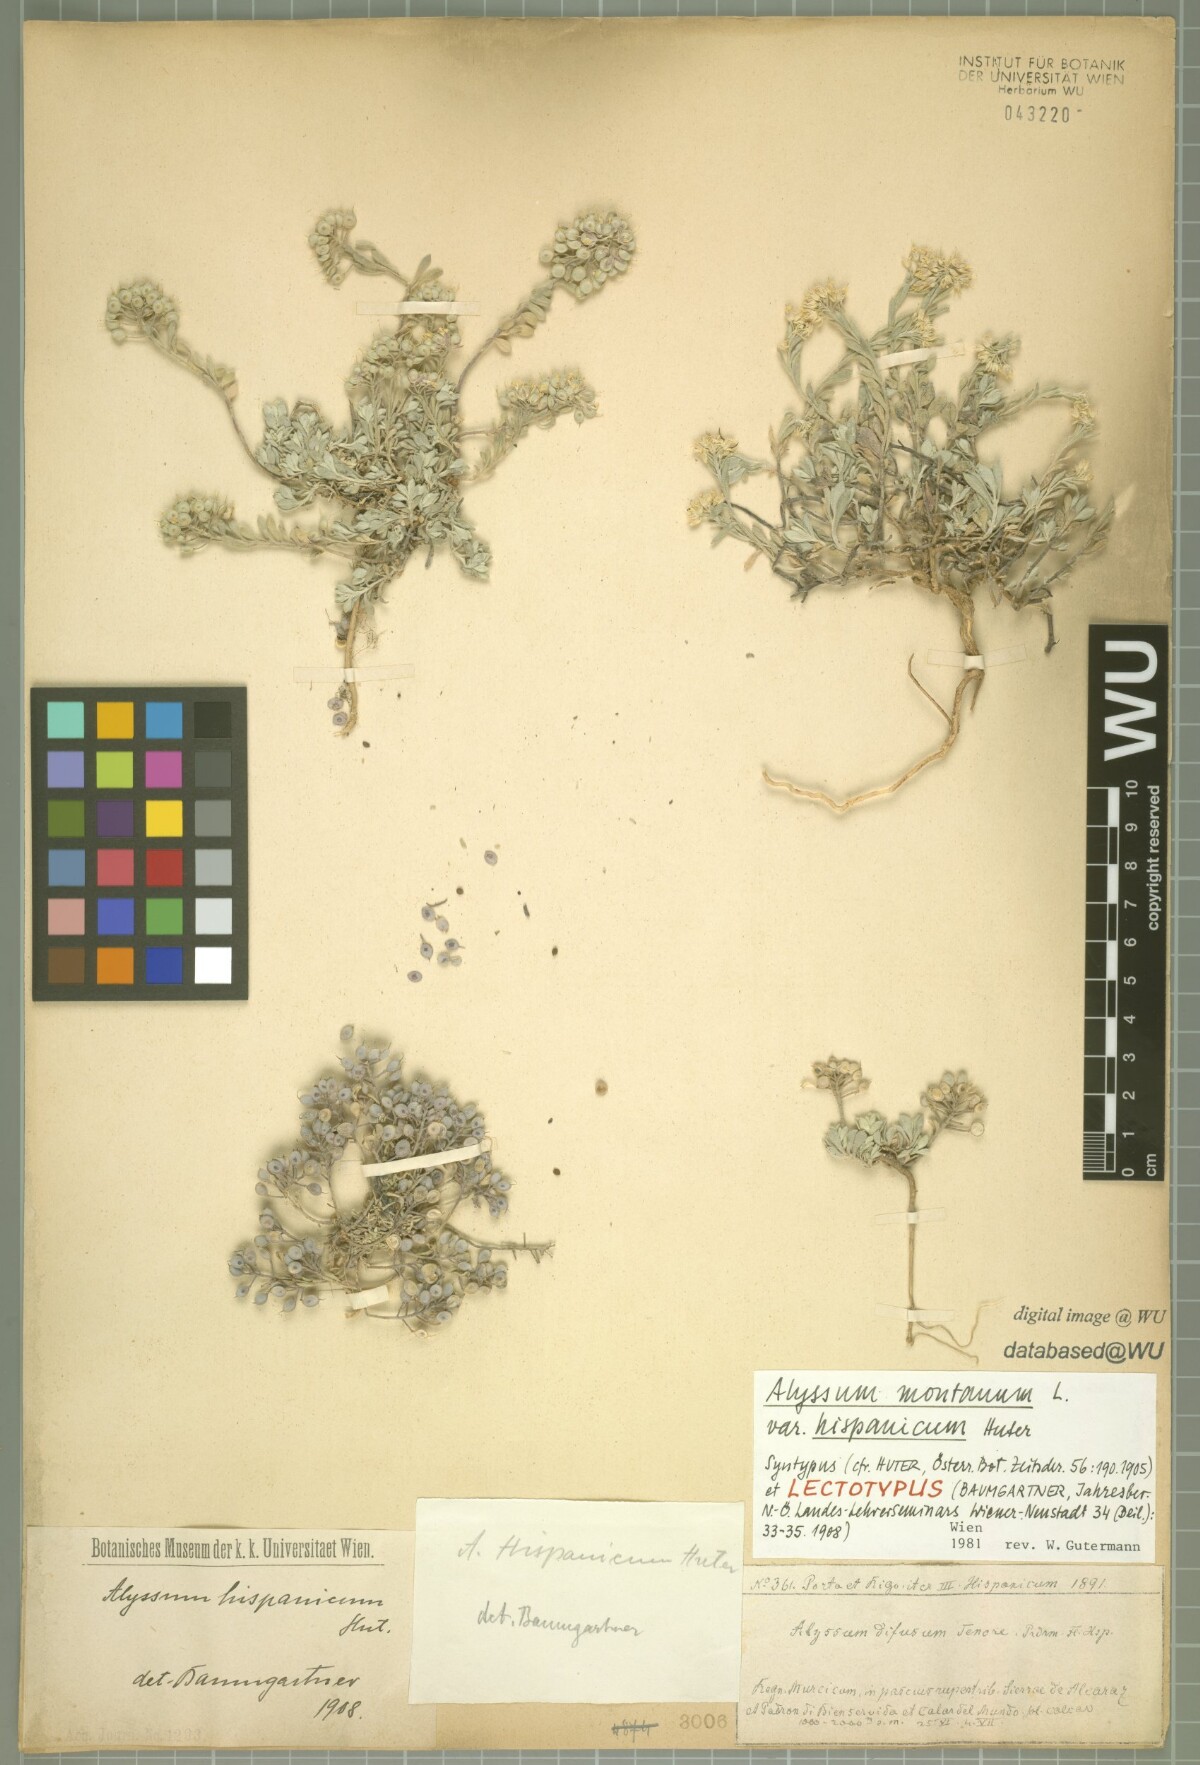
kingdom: Plantae
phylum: Tracheophyta
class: Magnoliopsida
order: Brassicales
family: Brassicaceae
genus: Alyssum
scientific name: Alyssum fastigiatum
